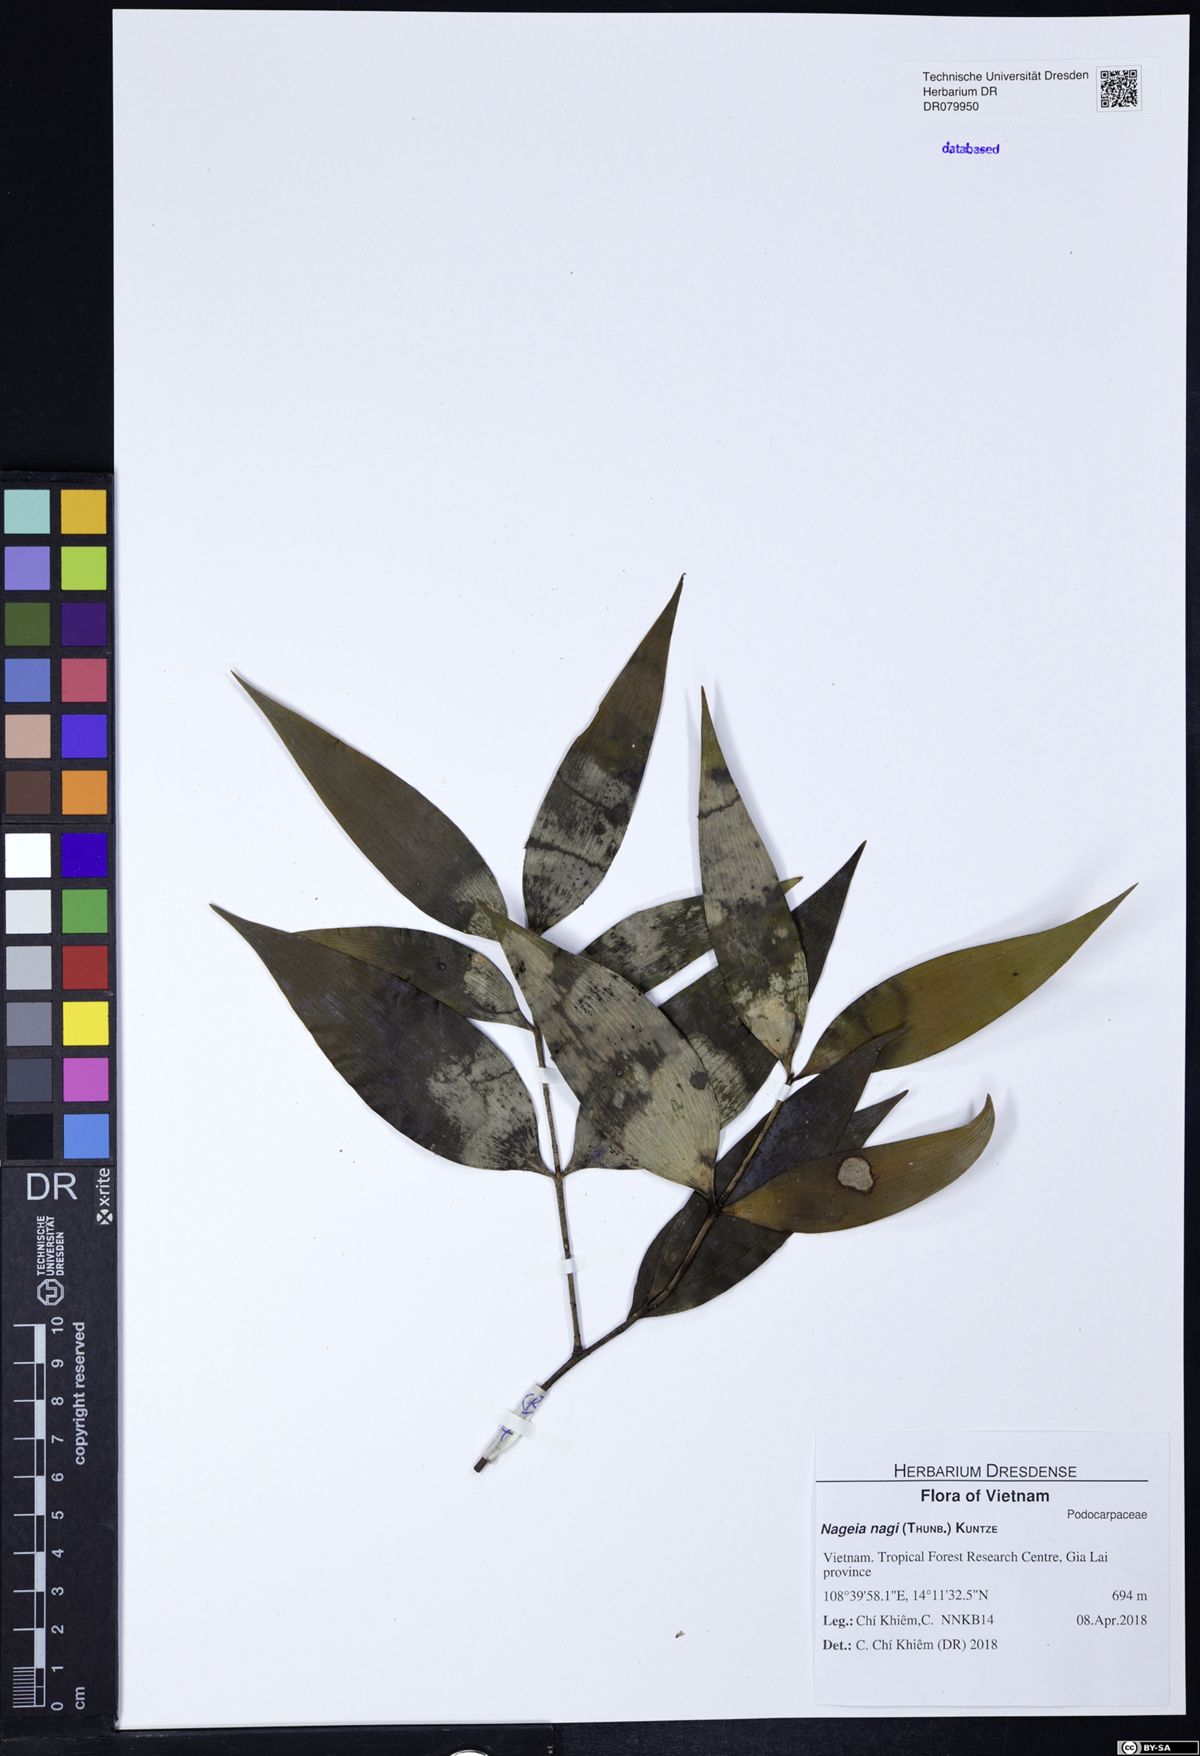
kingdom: Plantae
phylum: Tracheophyta
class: Pinopsida
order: Pinales
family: Podocarpaceae
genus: Nageia
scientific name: Nageia nagi
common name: Kaphal
